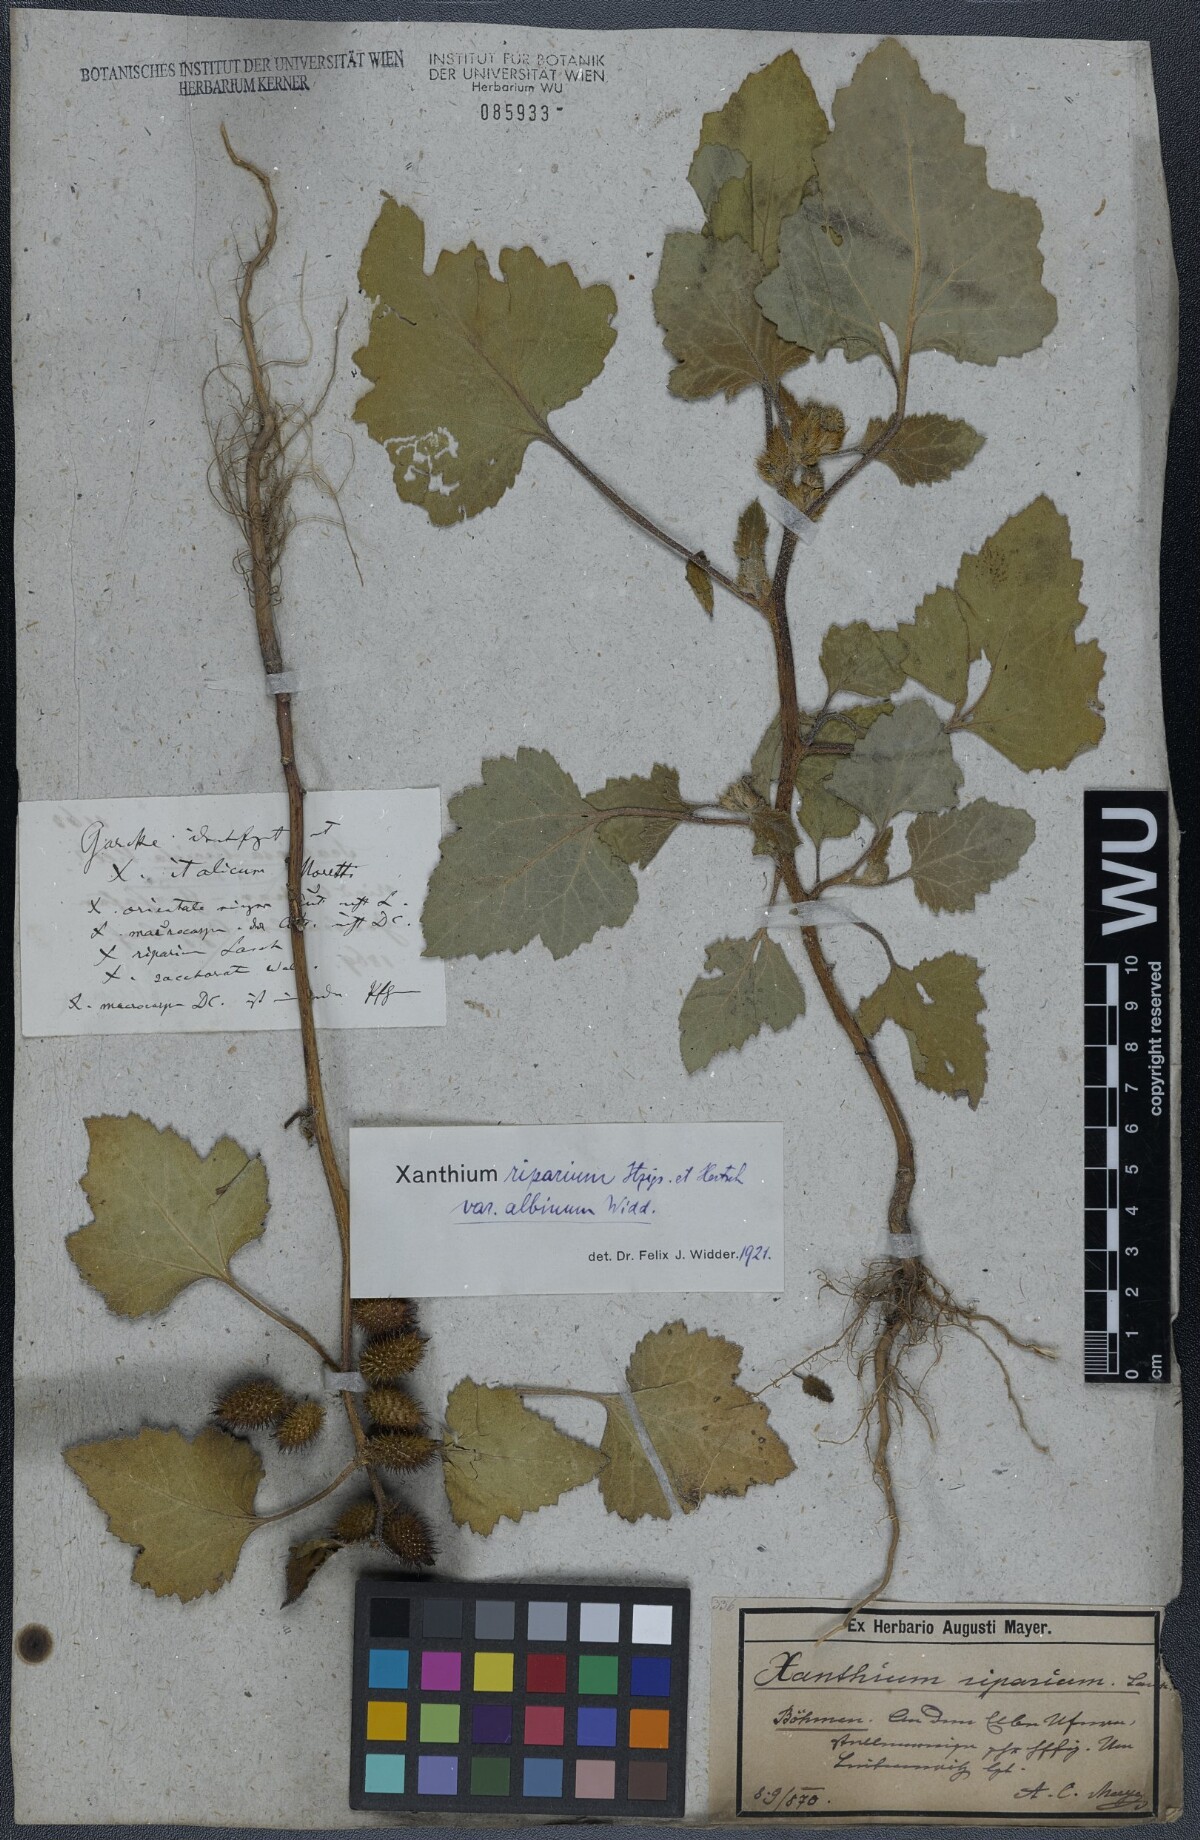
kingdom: Plantae
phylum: Tracheophyta
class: Magnoliopsida
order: Asterales
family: Asteraceae
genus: Xanthium
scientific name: Xanthium orientale
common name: Californian burr
